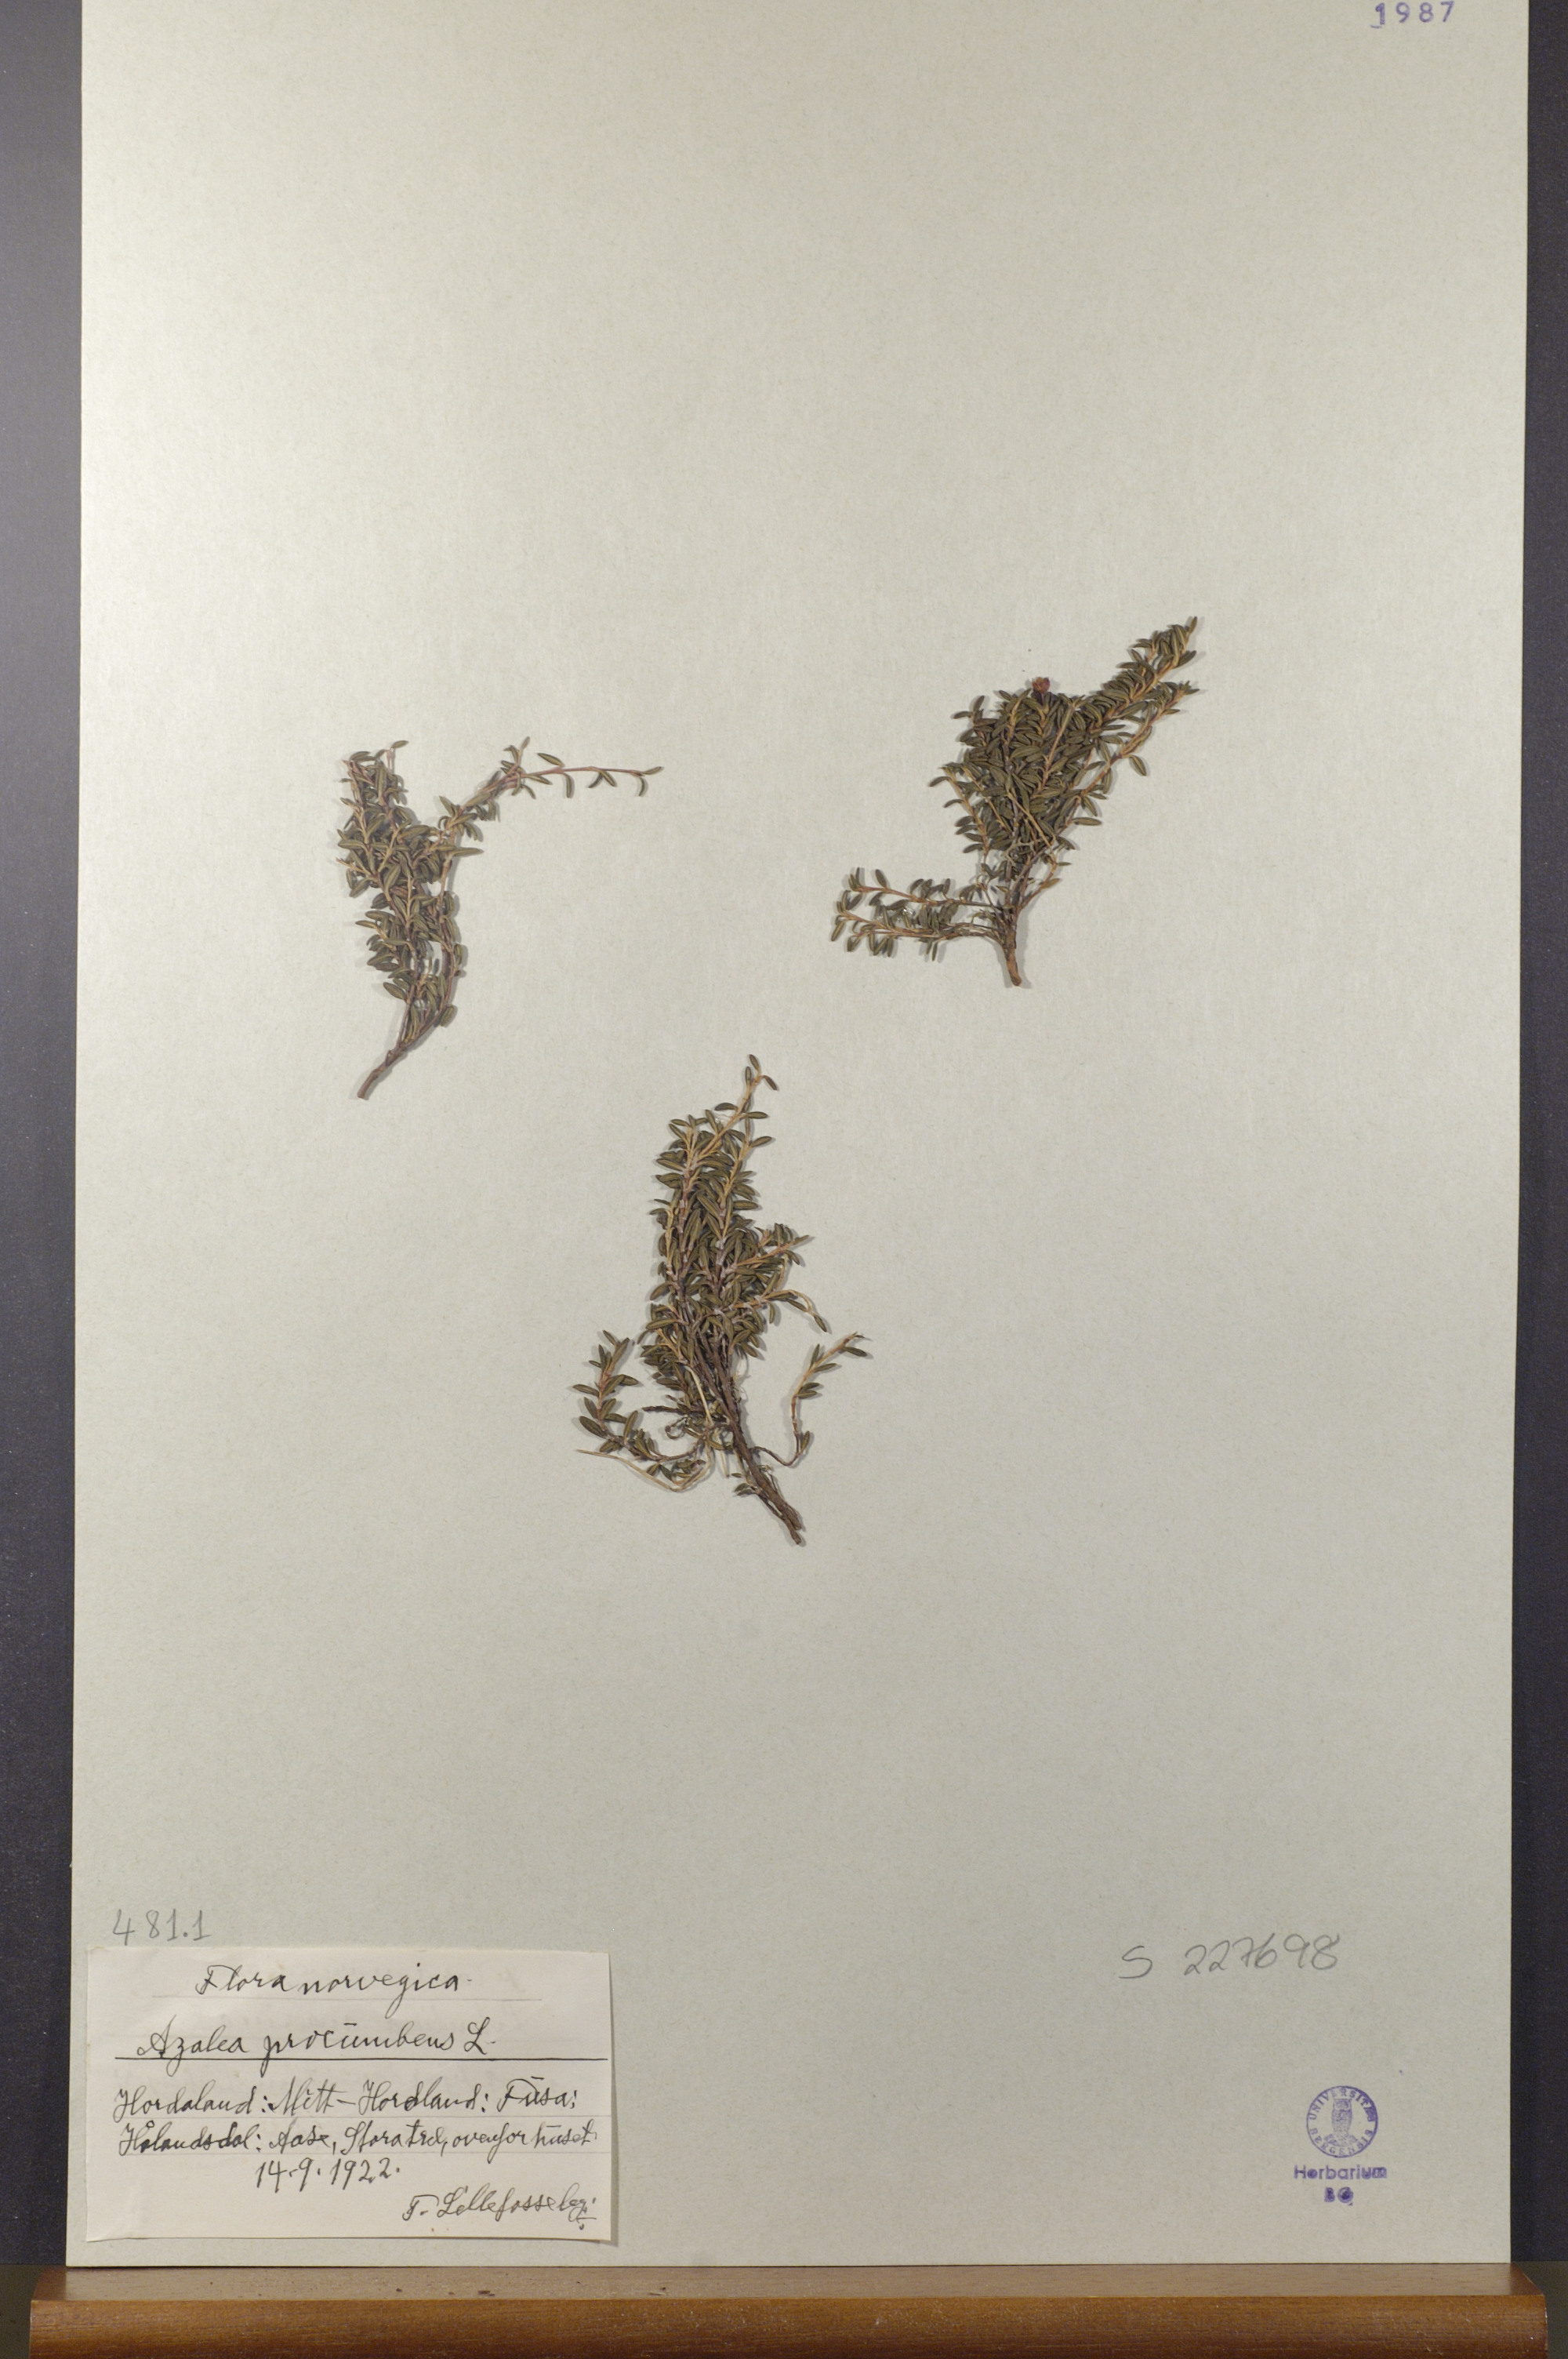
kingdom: Plantae
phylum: Tracheophyta
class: Magnoliopsida
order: Ericales
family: Ericaceae
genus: Kalmia
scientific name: Kalmia procumbens
